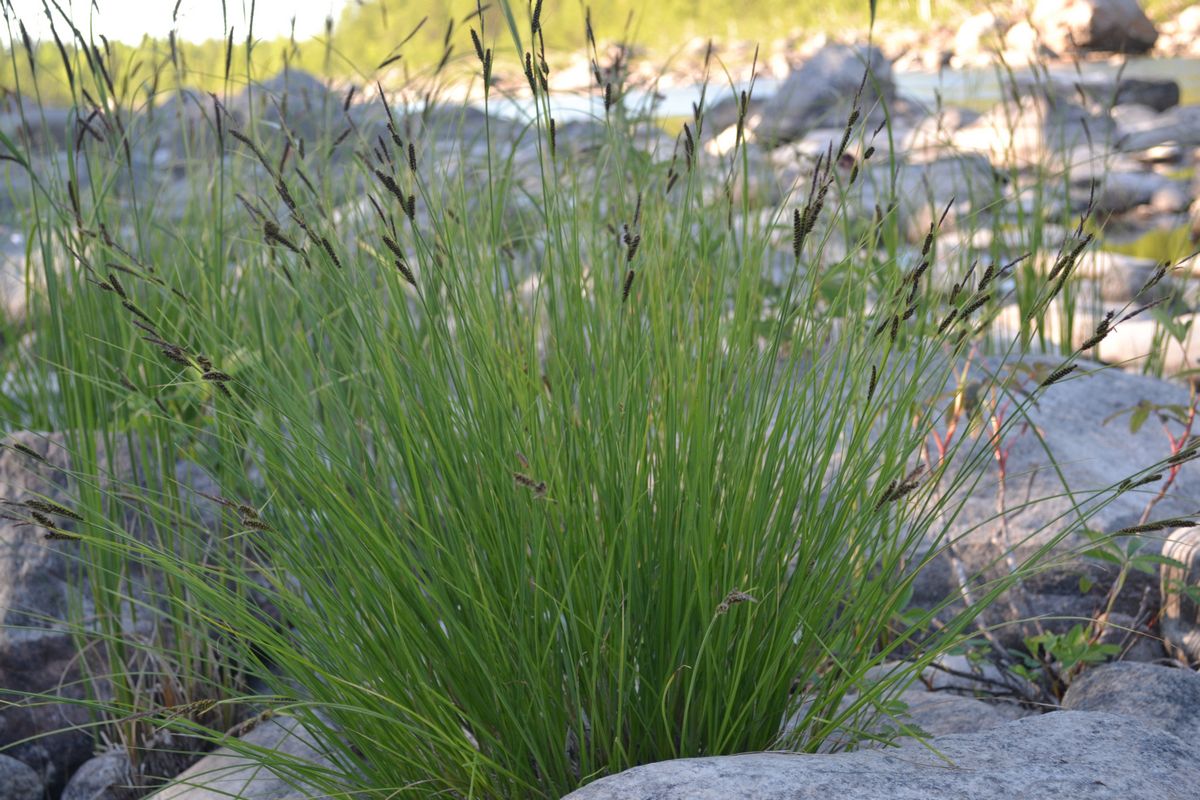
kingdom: Plantae
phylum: Tracheophyta
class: Liliopsida
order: Poales
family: Cyperaceae
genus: Carex
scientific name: Carex nigra
